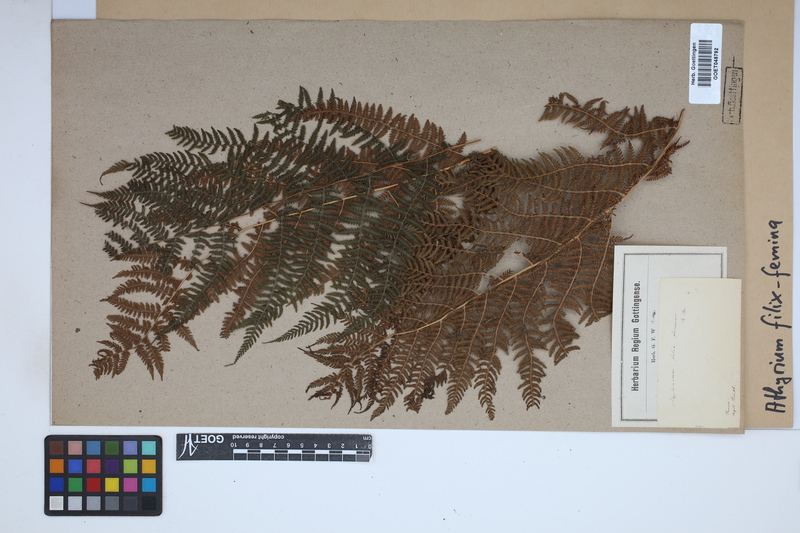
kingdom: Plantae
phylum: Tracheophyta
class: Polypodiopsida
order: Polypodiales
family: Athyriaceae
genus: Athyrium
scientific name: Athyrium filix-femina
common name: Lady fern
